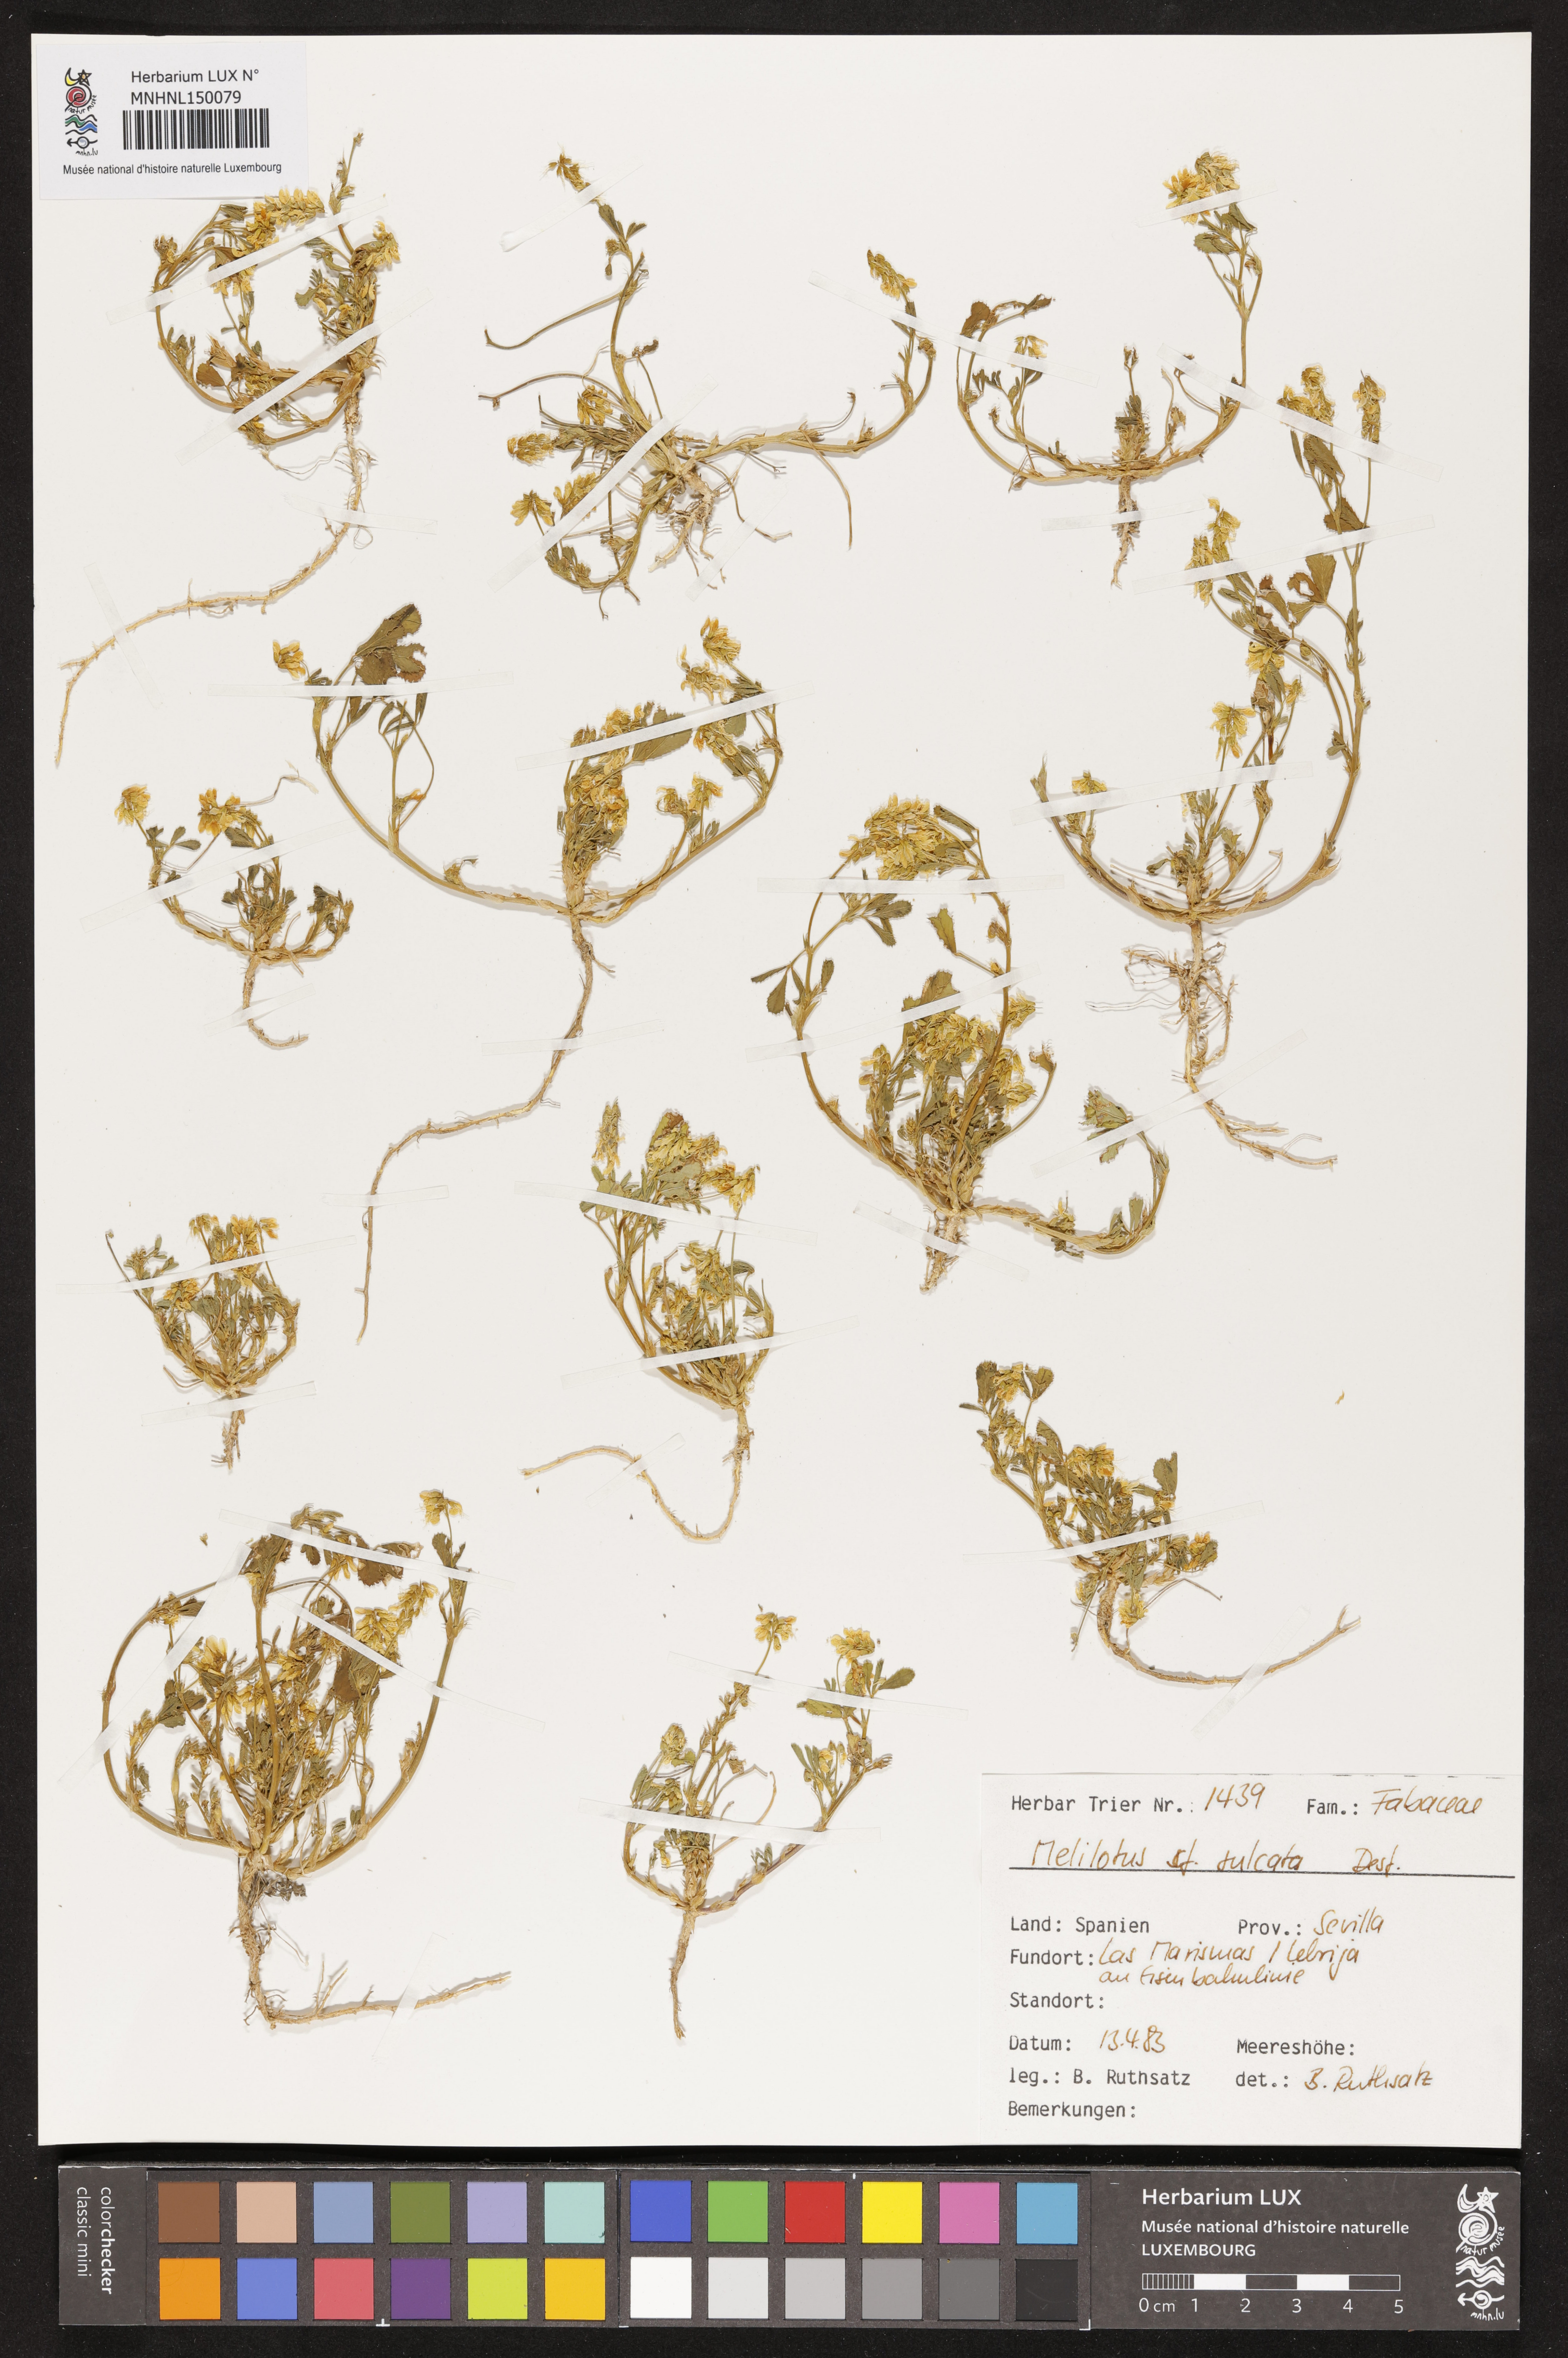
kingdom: Plantae
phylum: Tracheophyta
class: Magnoliopsida
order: Fabales
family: Fabaceae
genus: Melilotus
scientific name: Melilotus sulcatus
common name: Furrowed melilot
